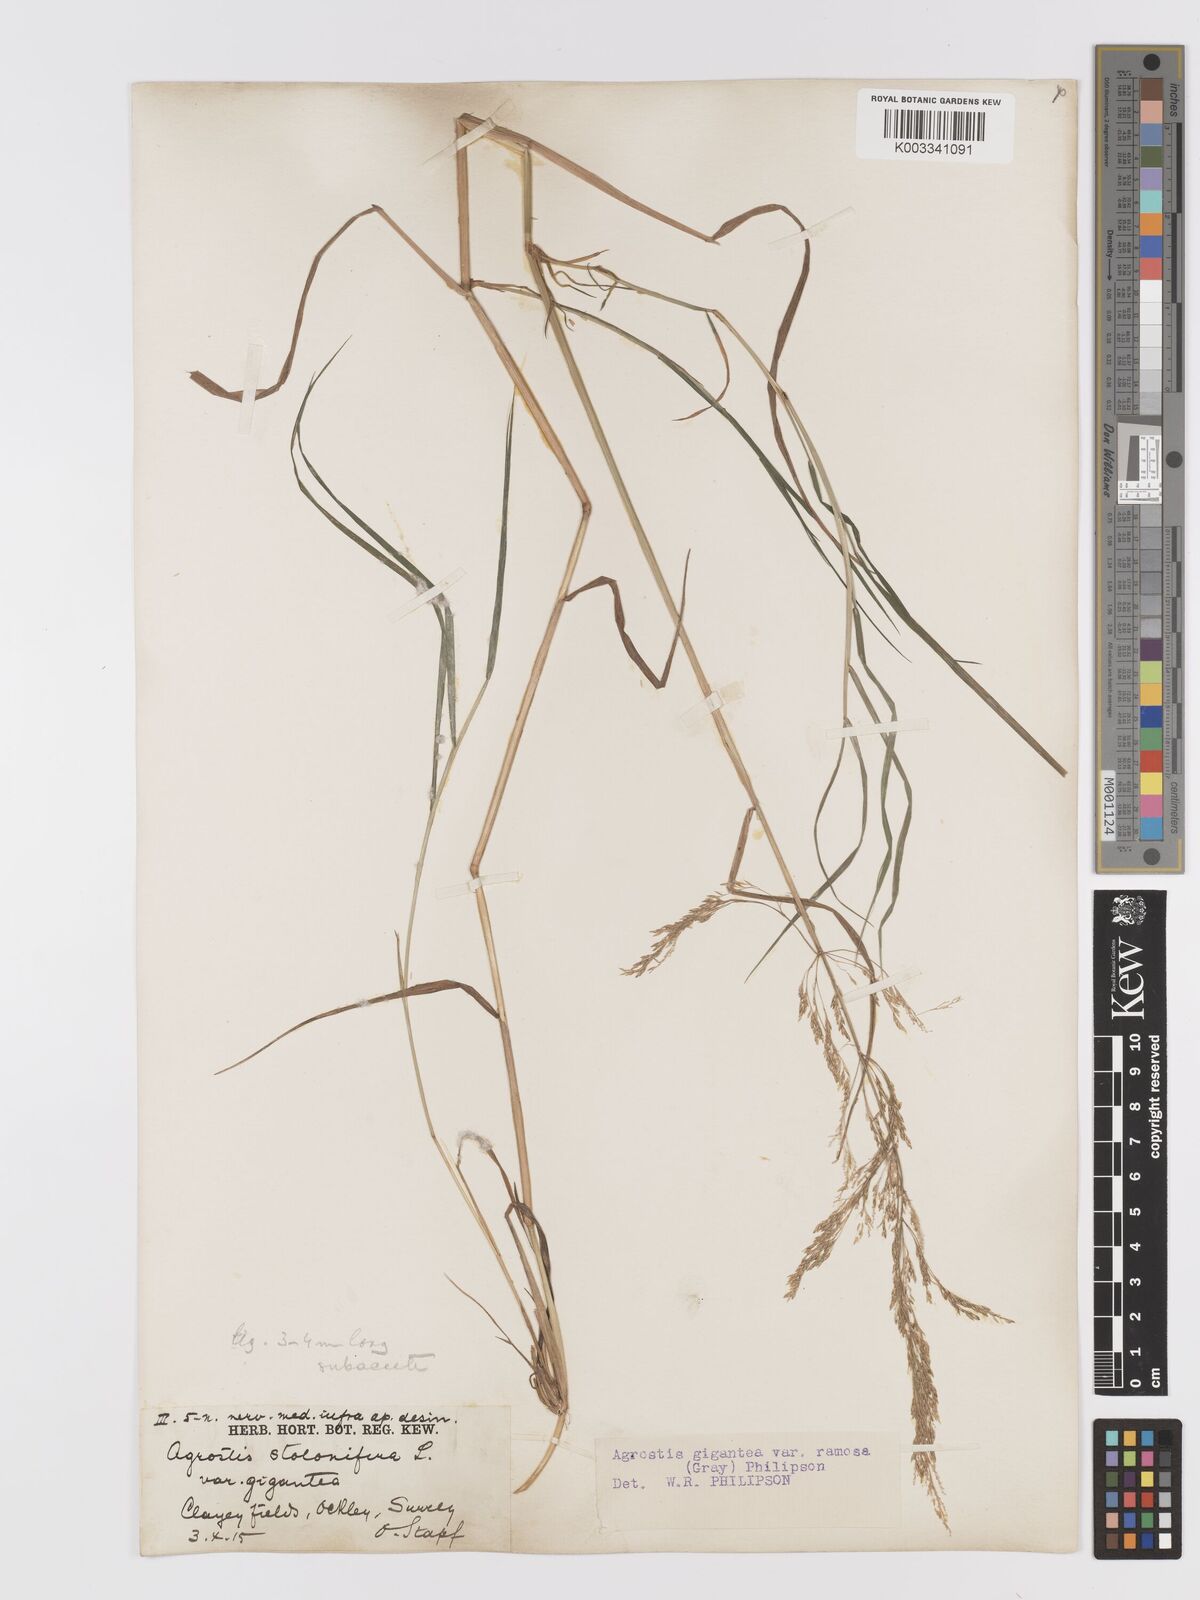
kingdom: Plantae
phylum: Tracheophyta
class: Liliopsida
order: Poales
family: Poaceae
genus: Agrostis
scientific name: Agrostis gigantea
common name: Black bent
